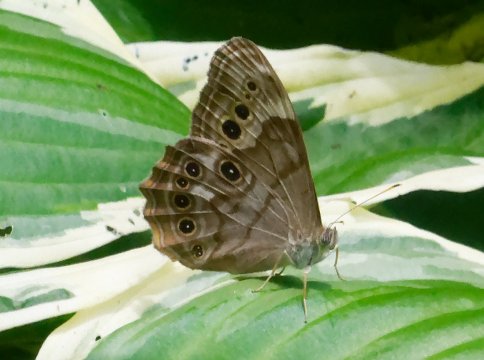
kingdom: Animalia
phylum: Arthropoda
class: Insecta
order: Lepidoptera
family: Nymphalidae
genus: Lethe
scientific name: Lethe anthedon
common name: Northern Pearly-Eye
